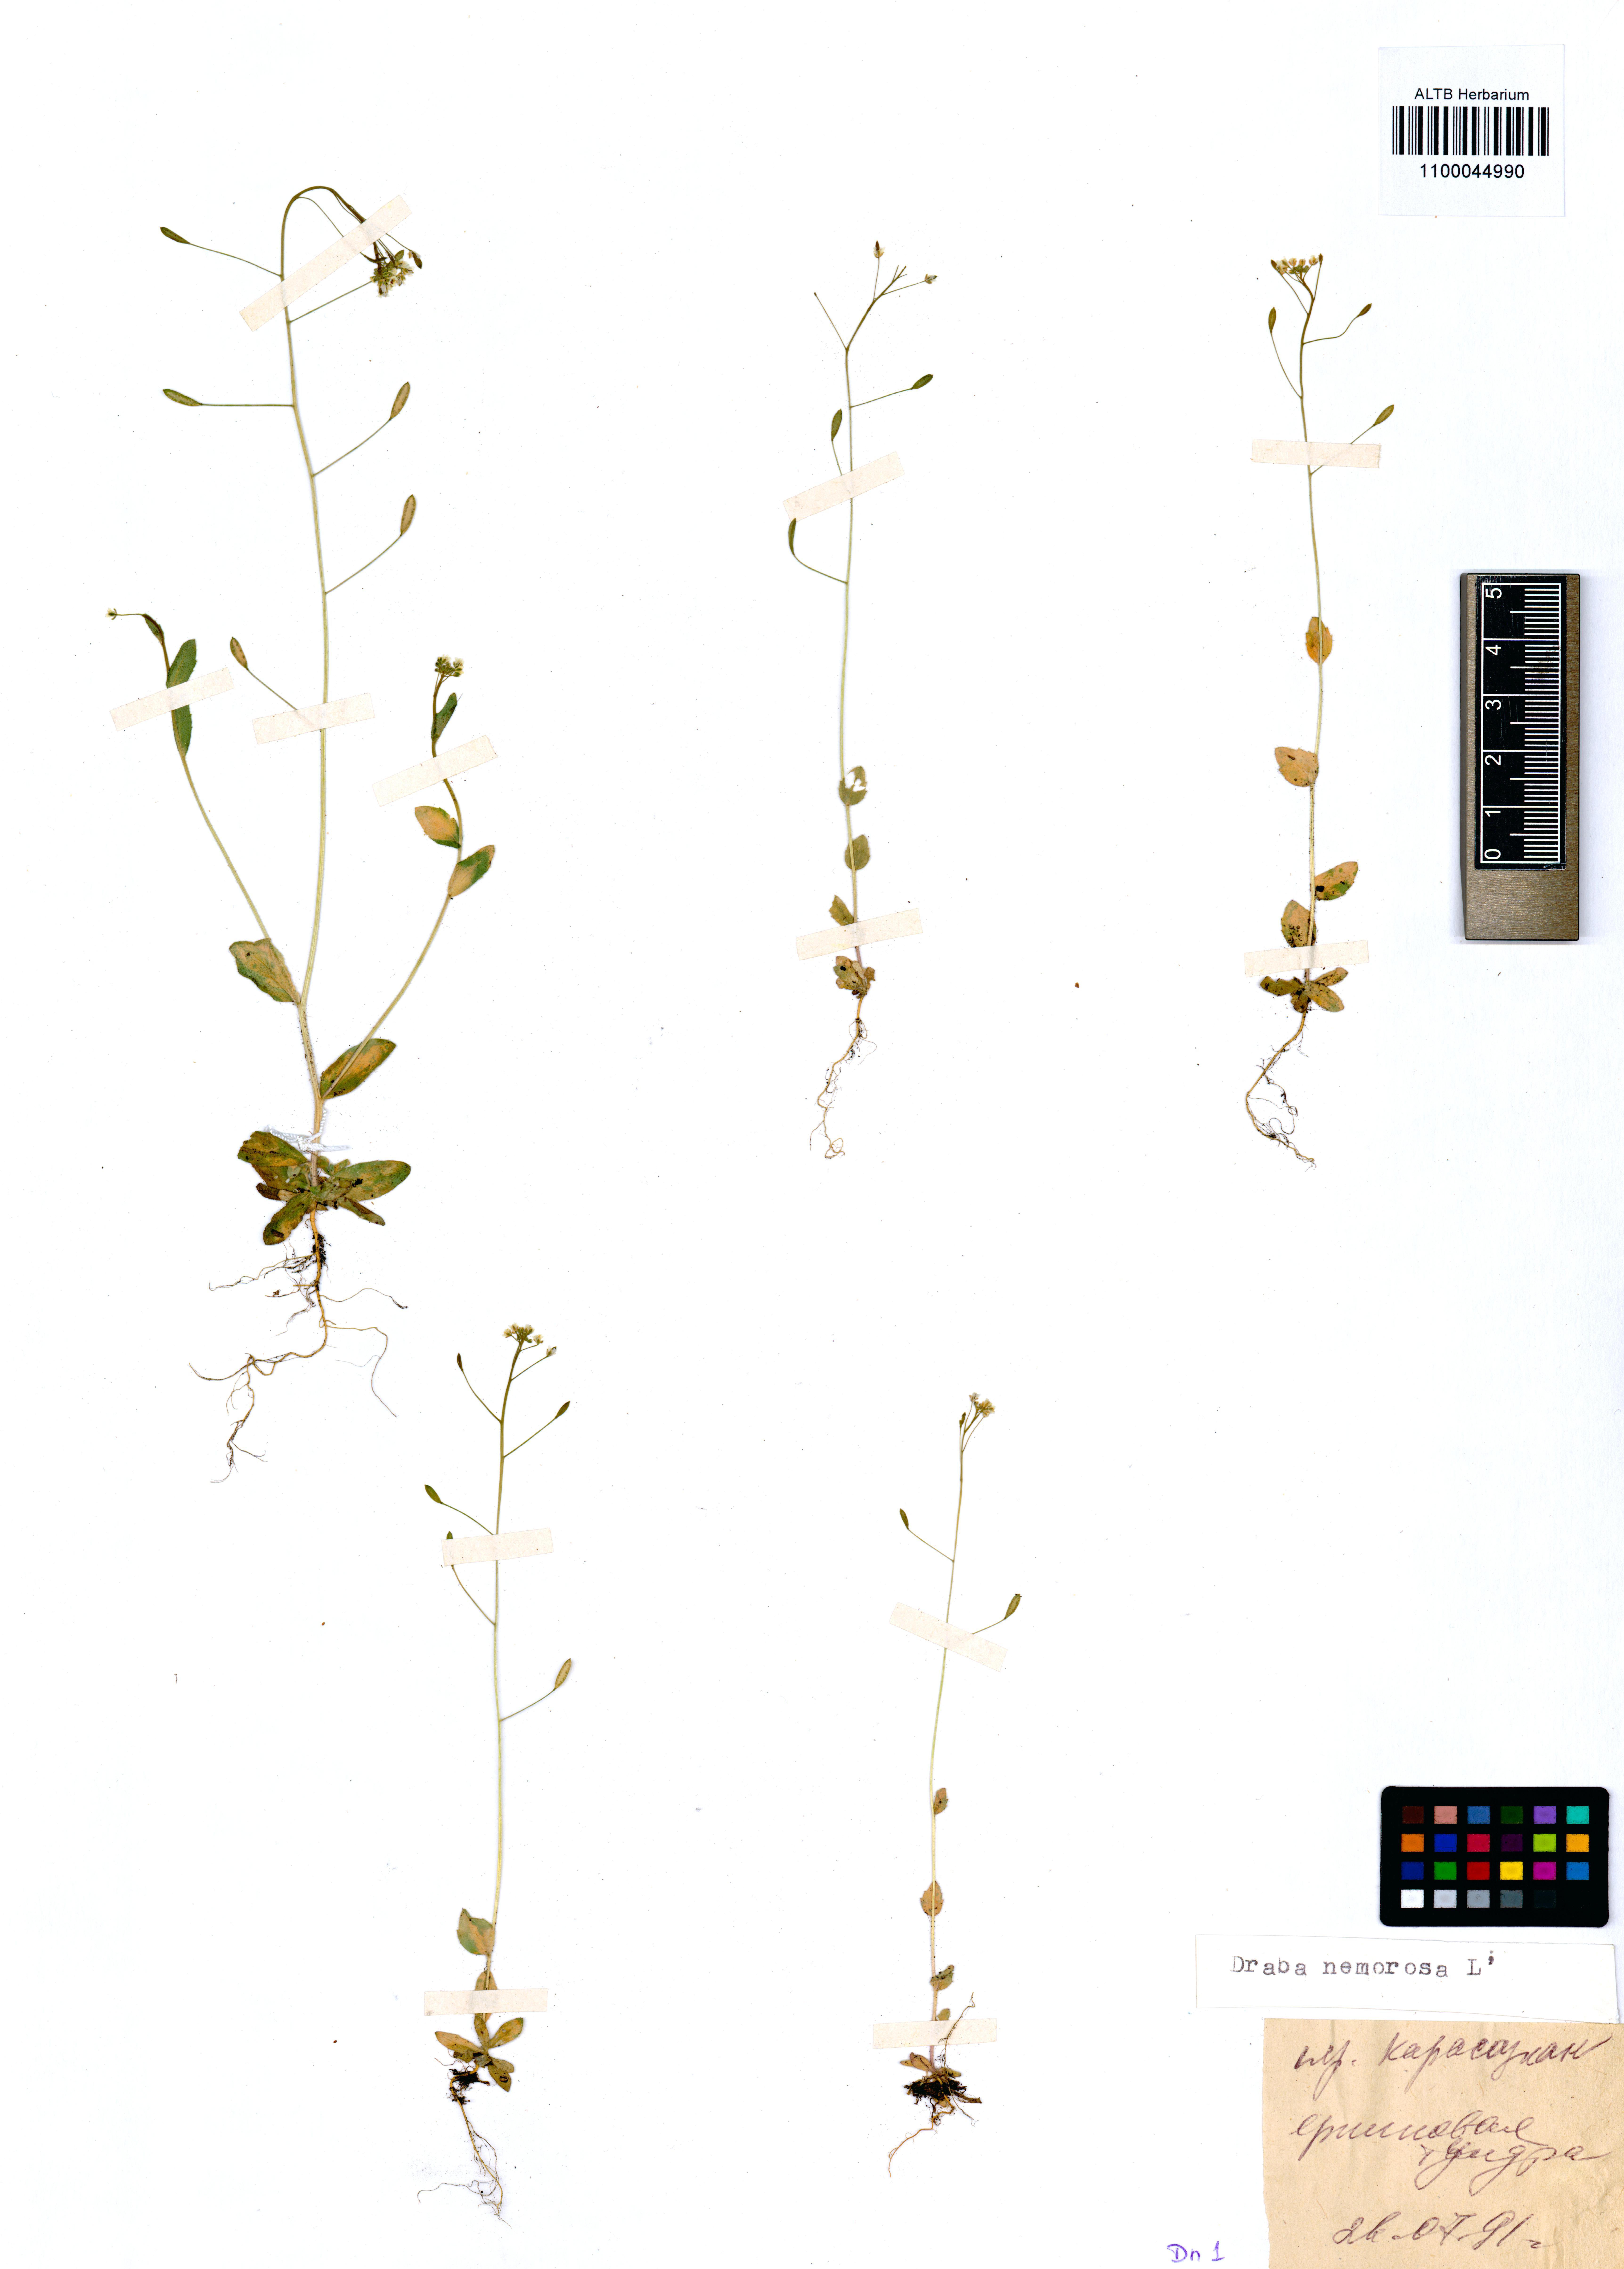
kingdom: Plantae
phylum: Tracheophyta
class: Magnoliopsida
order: Brassicales
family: Brassicaceae
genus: Draba
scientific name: Draba nemorosa
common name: Wood whitlow-grass
